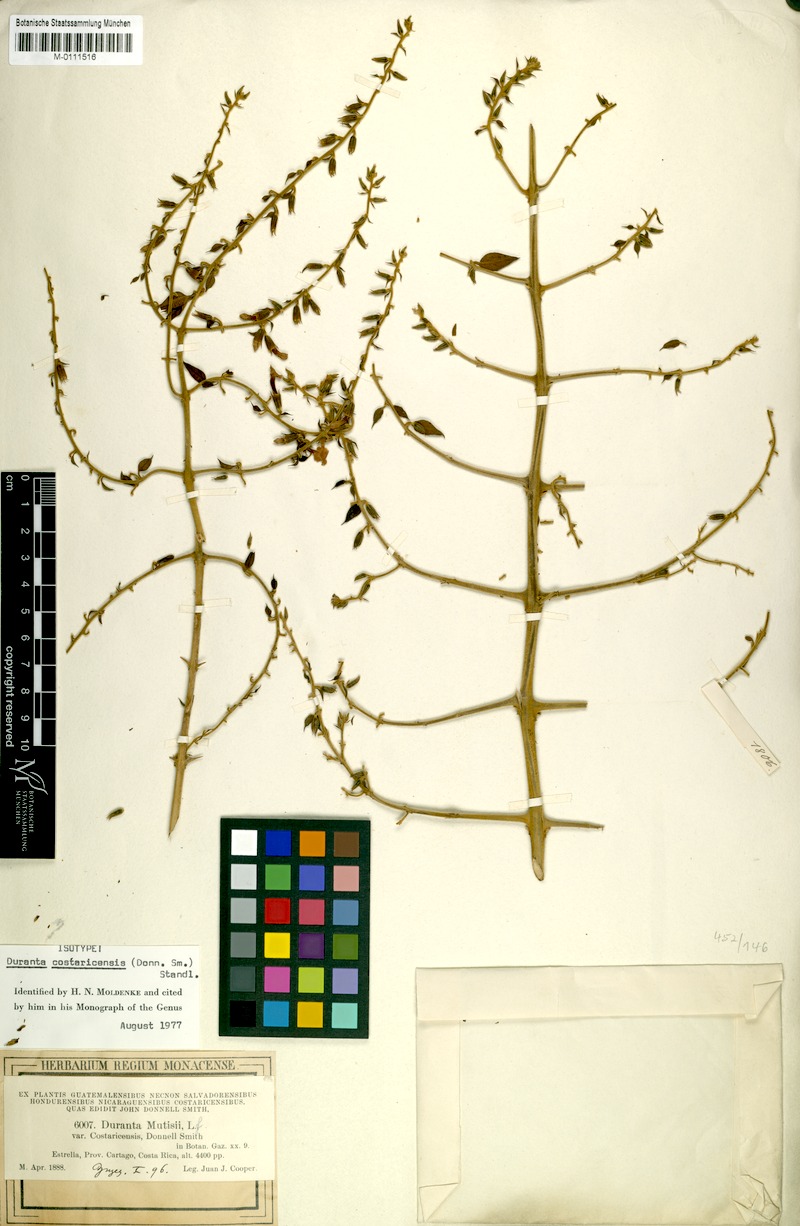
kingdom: Plantae
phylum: Tracheophyta
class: Magnoliopsida
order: Lamiales
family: Verbenaceae
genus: Duranta
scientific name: Duranta costaricensis
